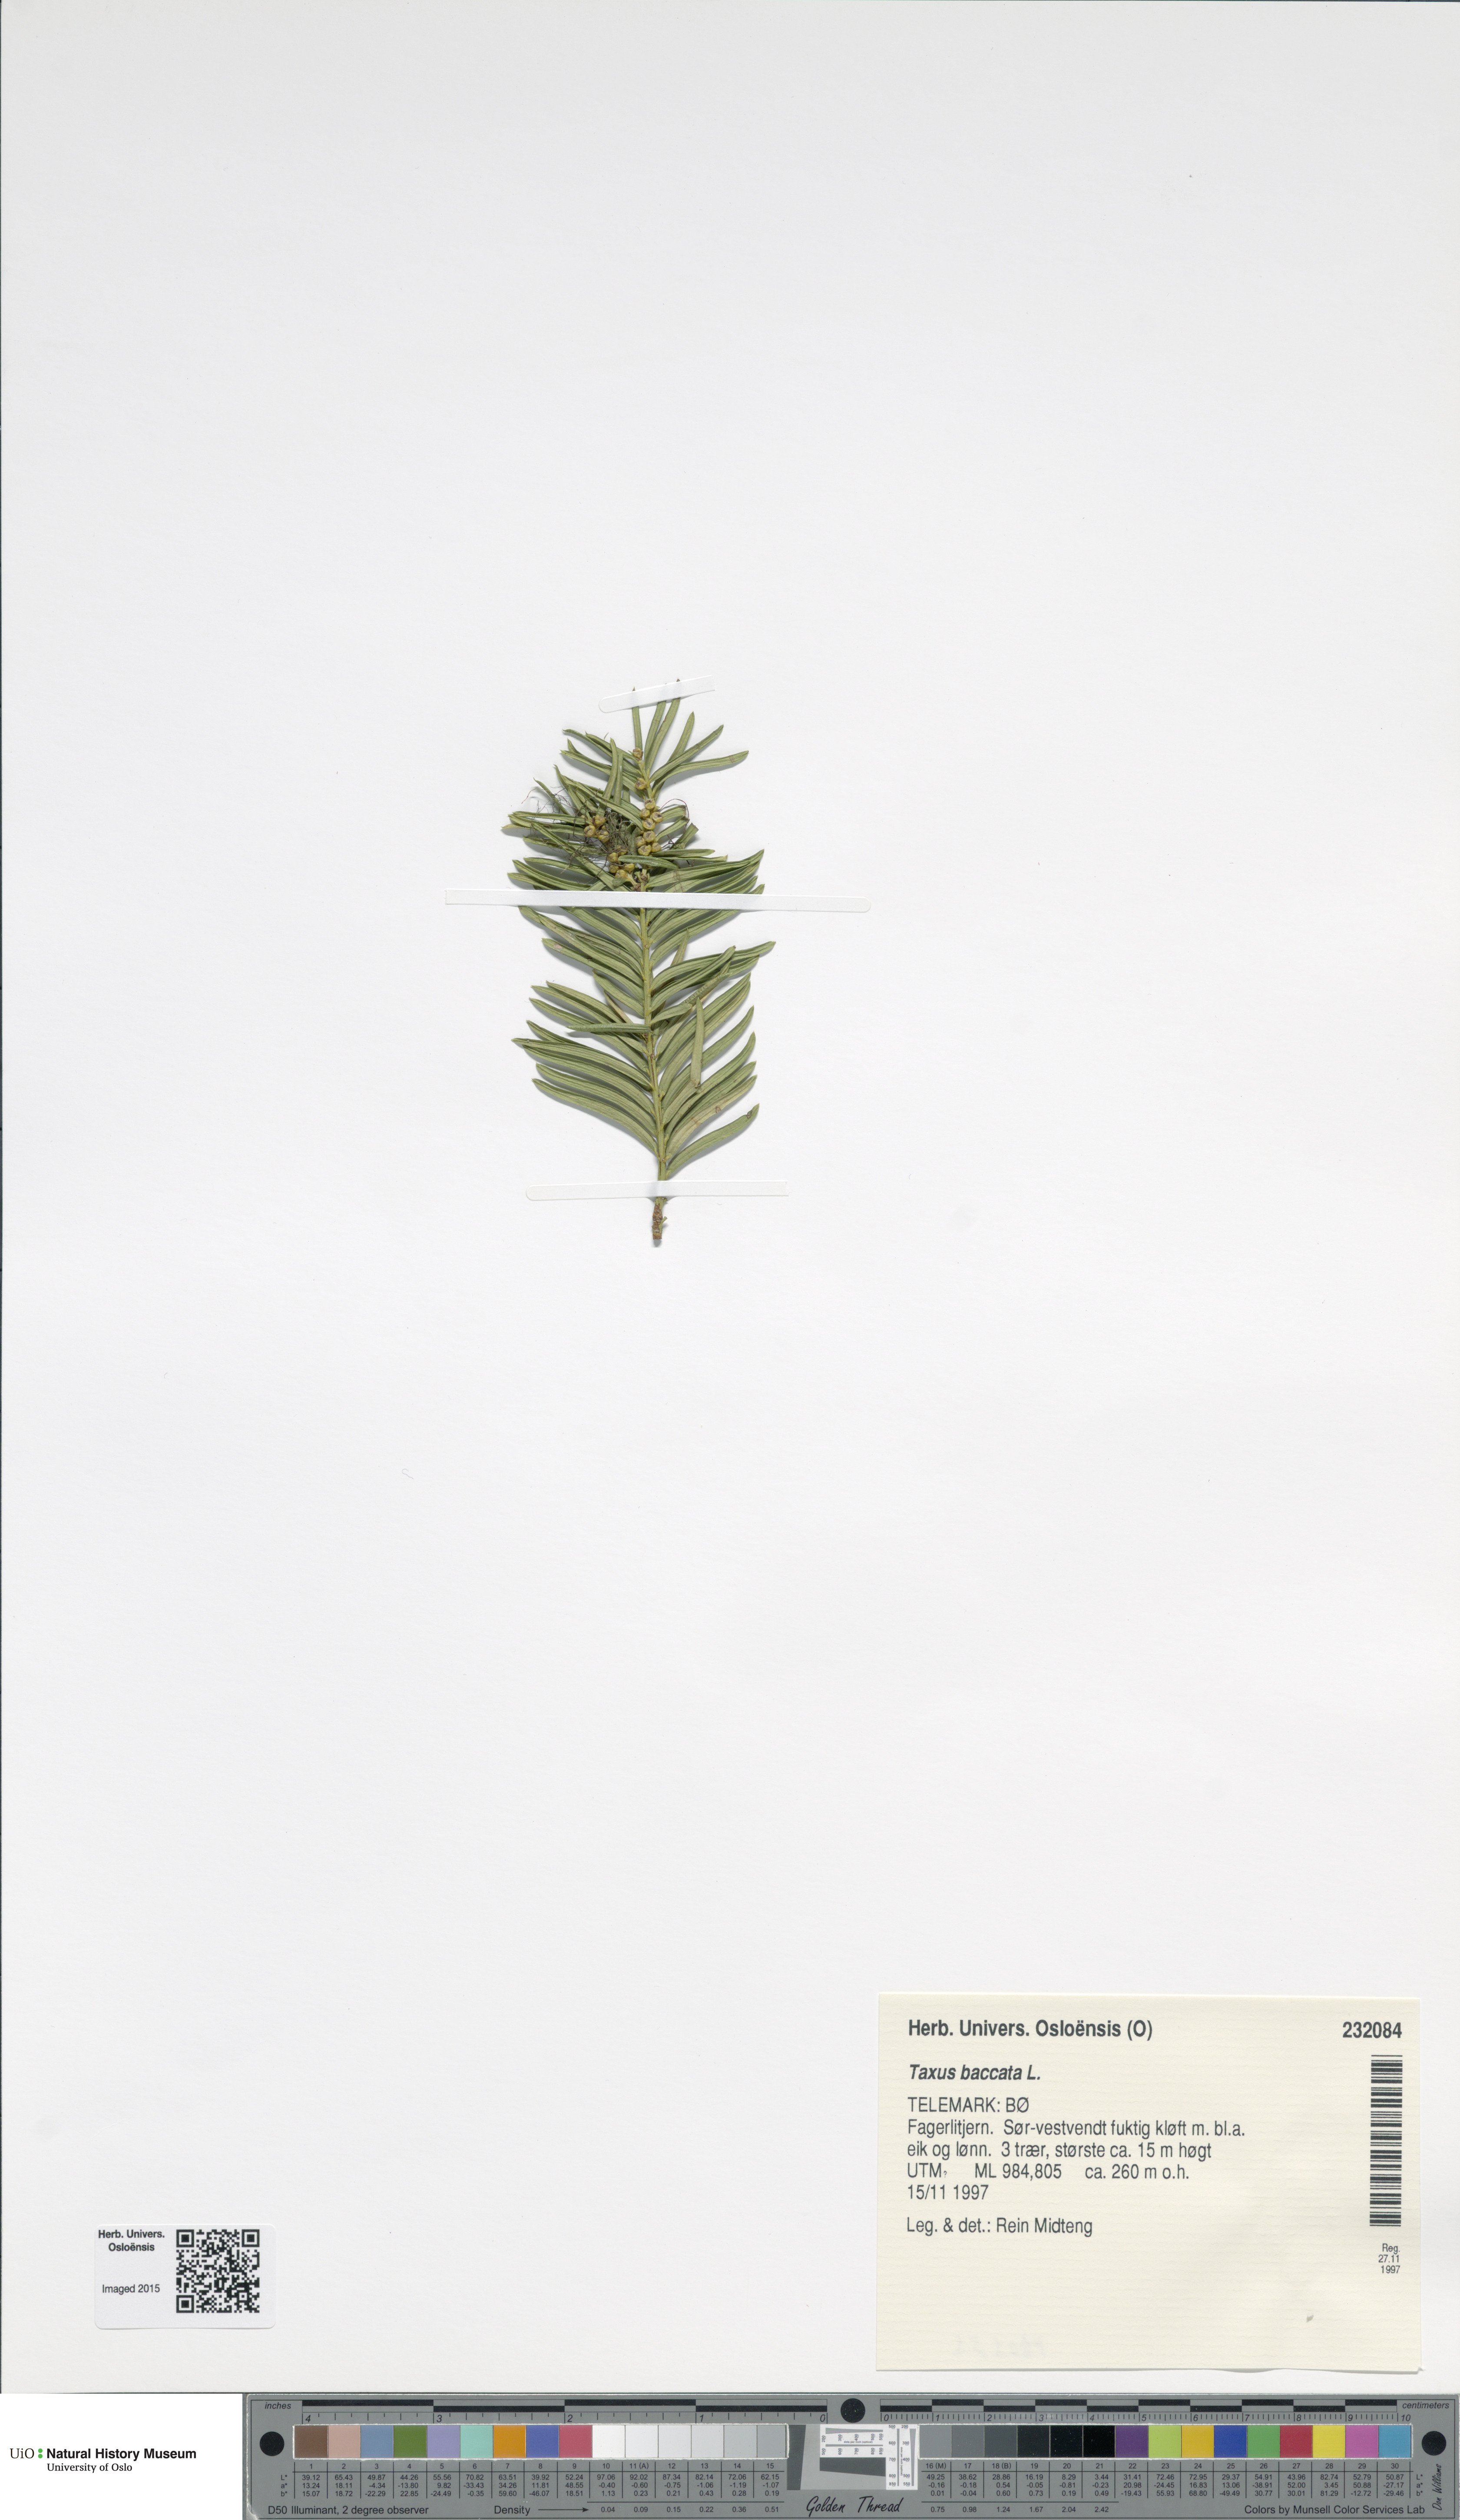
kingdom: Plantae
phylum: Tracheophyta
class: Pinopsida
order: Pinales
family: Taxaceae
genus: Taxus
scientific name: Taxus baccata
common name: Yew
